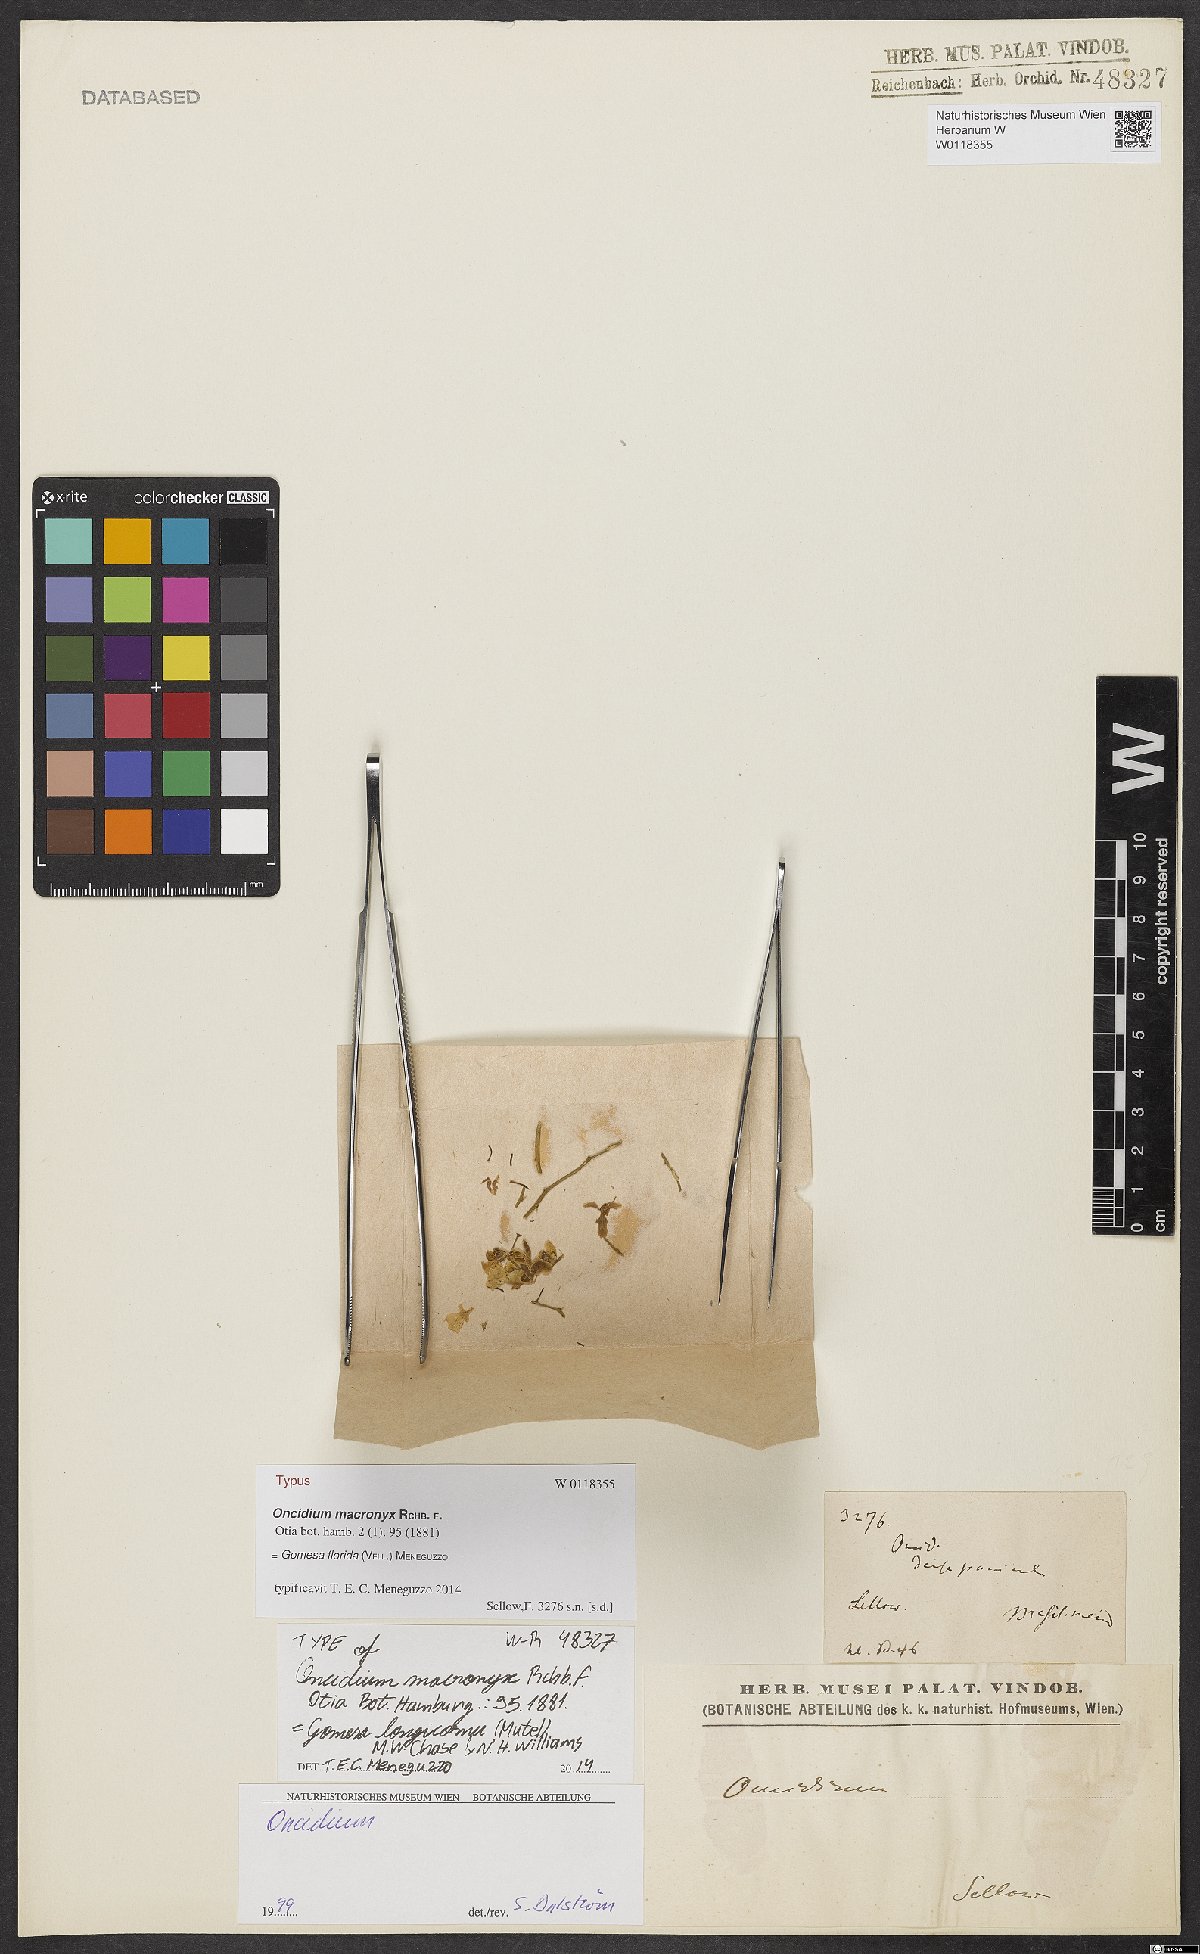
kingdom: Plantae
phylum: Tracheophyta
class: Liliopsida
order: Asparagales
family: Orchidaceae
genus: Gomesa
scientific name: Gomesa florida
